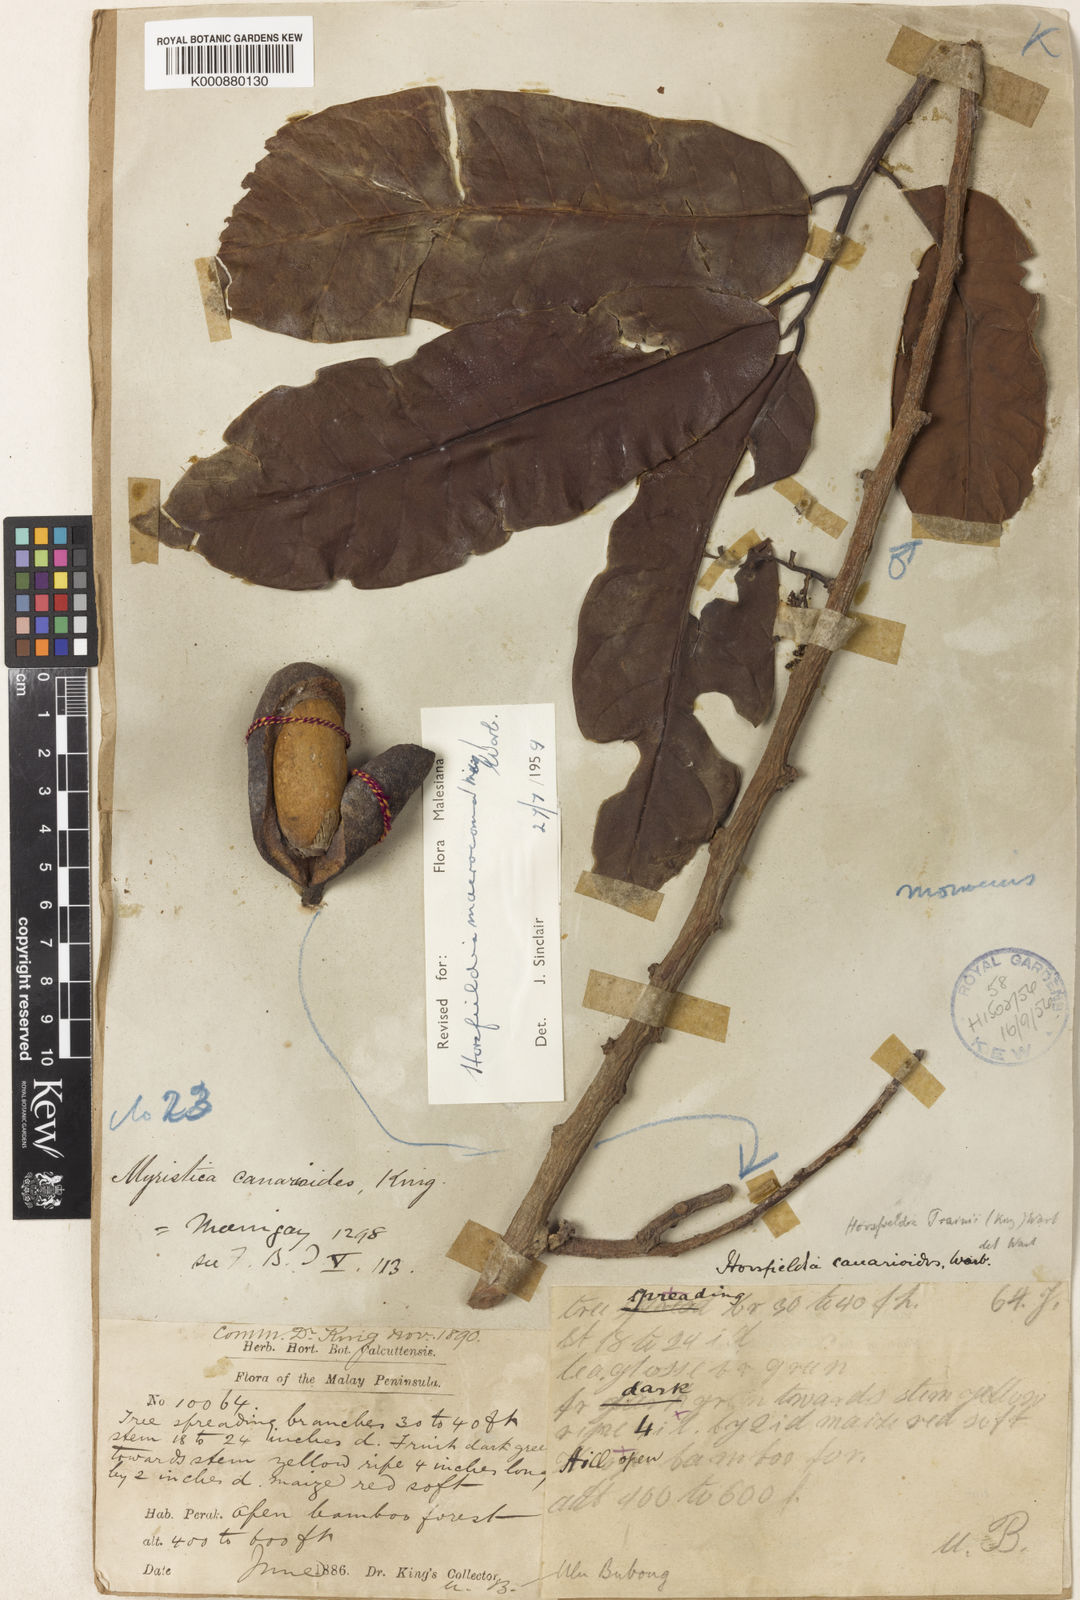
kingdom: Plantae
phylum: Tracheophyta
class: Magnoliopsida
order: Magnoliales
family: Myristicaceae
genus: Endocomia
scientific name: Endocomia canarioides
